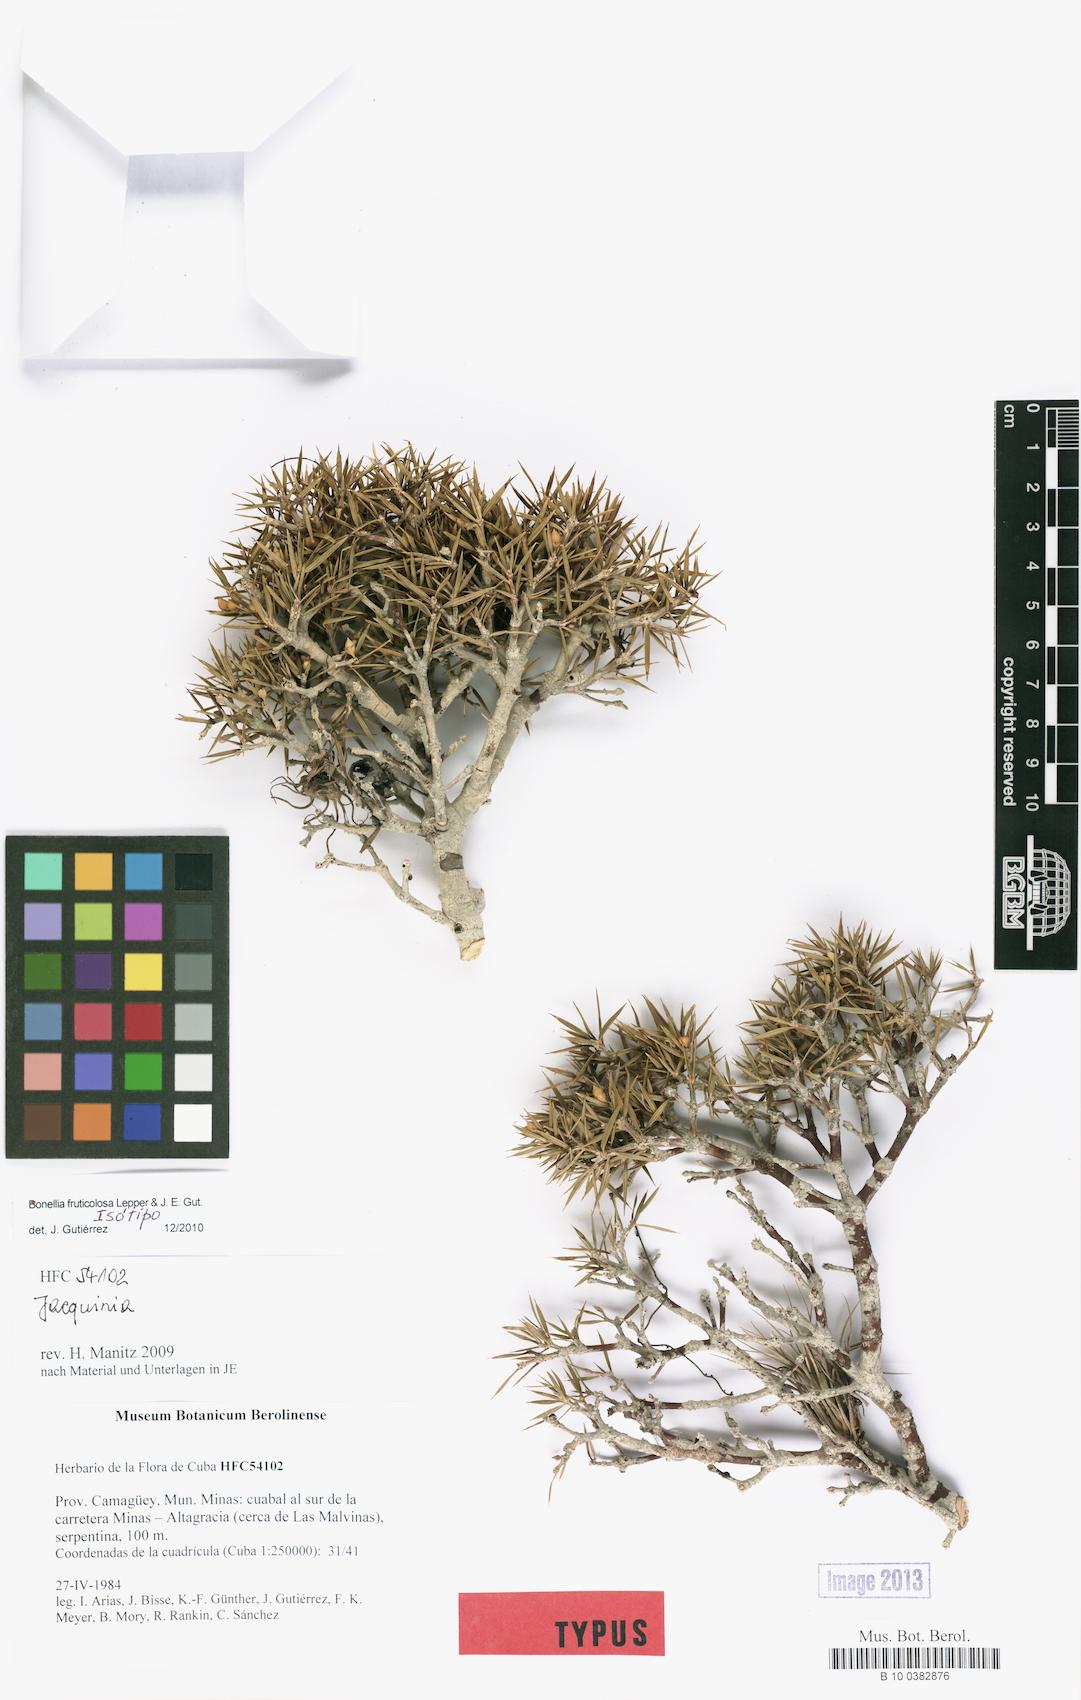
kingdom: Plantae
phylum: Tracheophyta
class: Magnoliopsida
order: Ericales
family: Primulaceae
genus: Bonellia
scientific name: Bonellia fruticulosa
